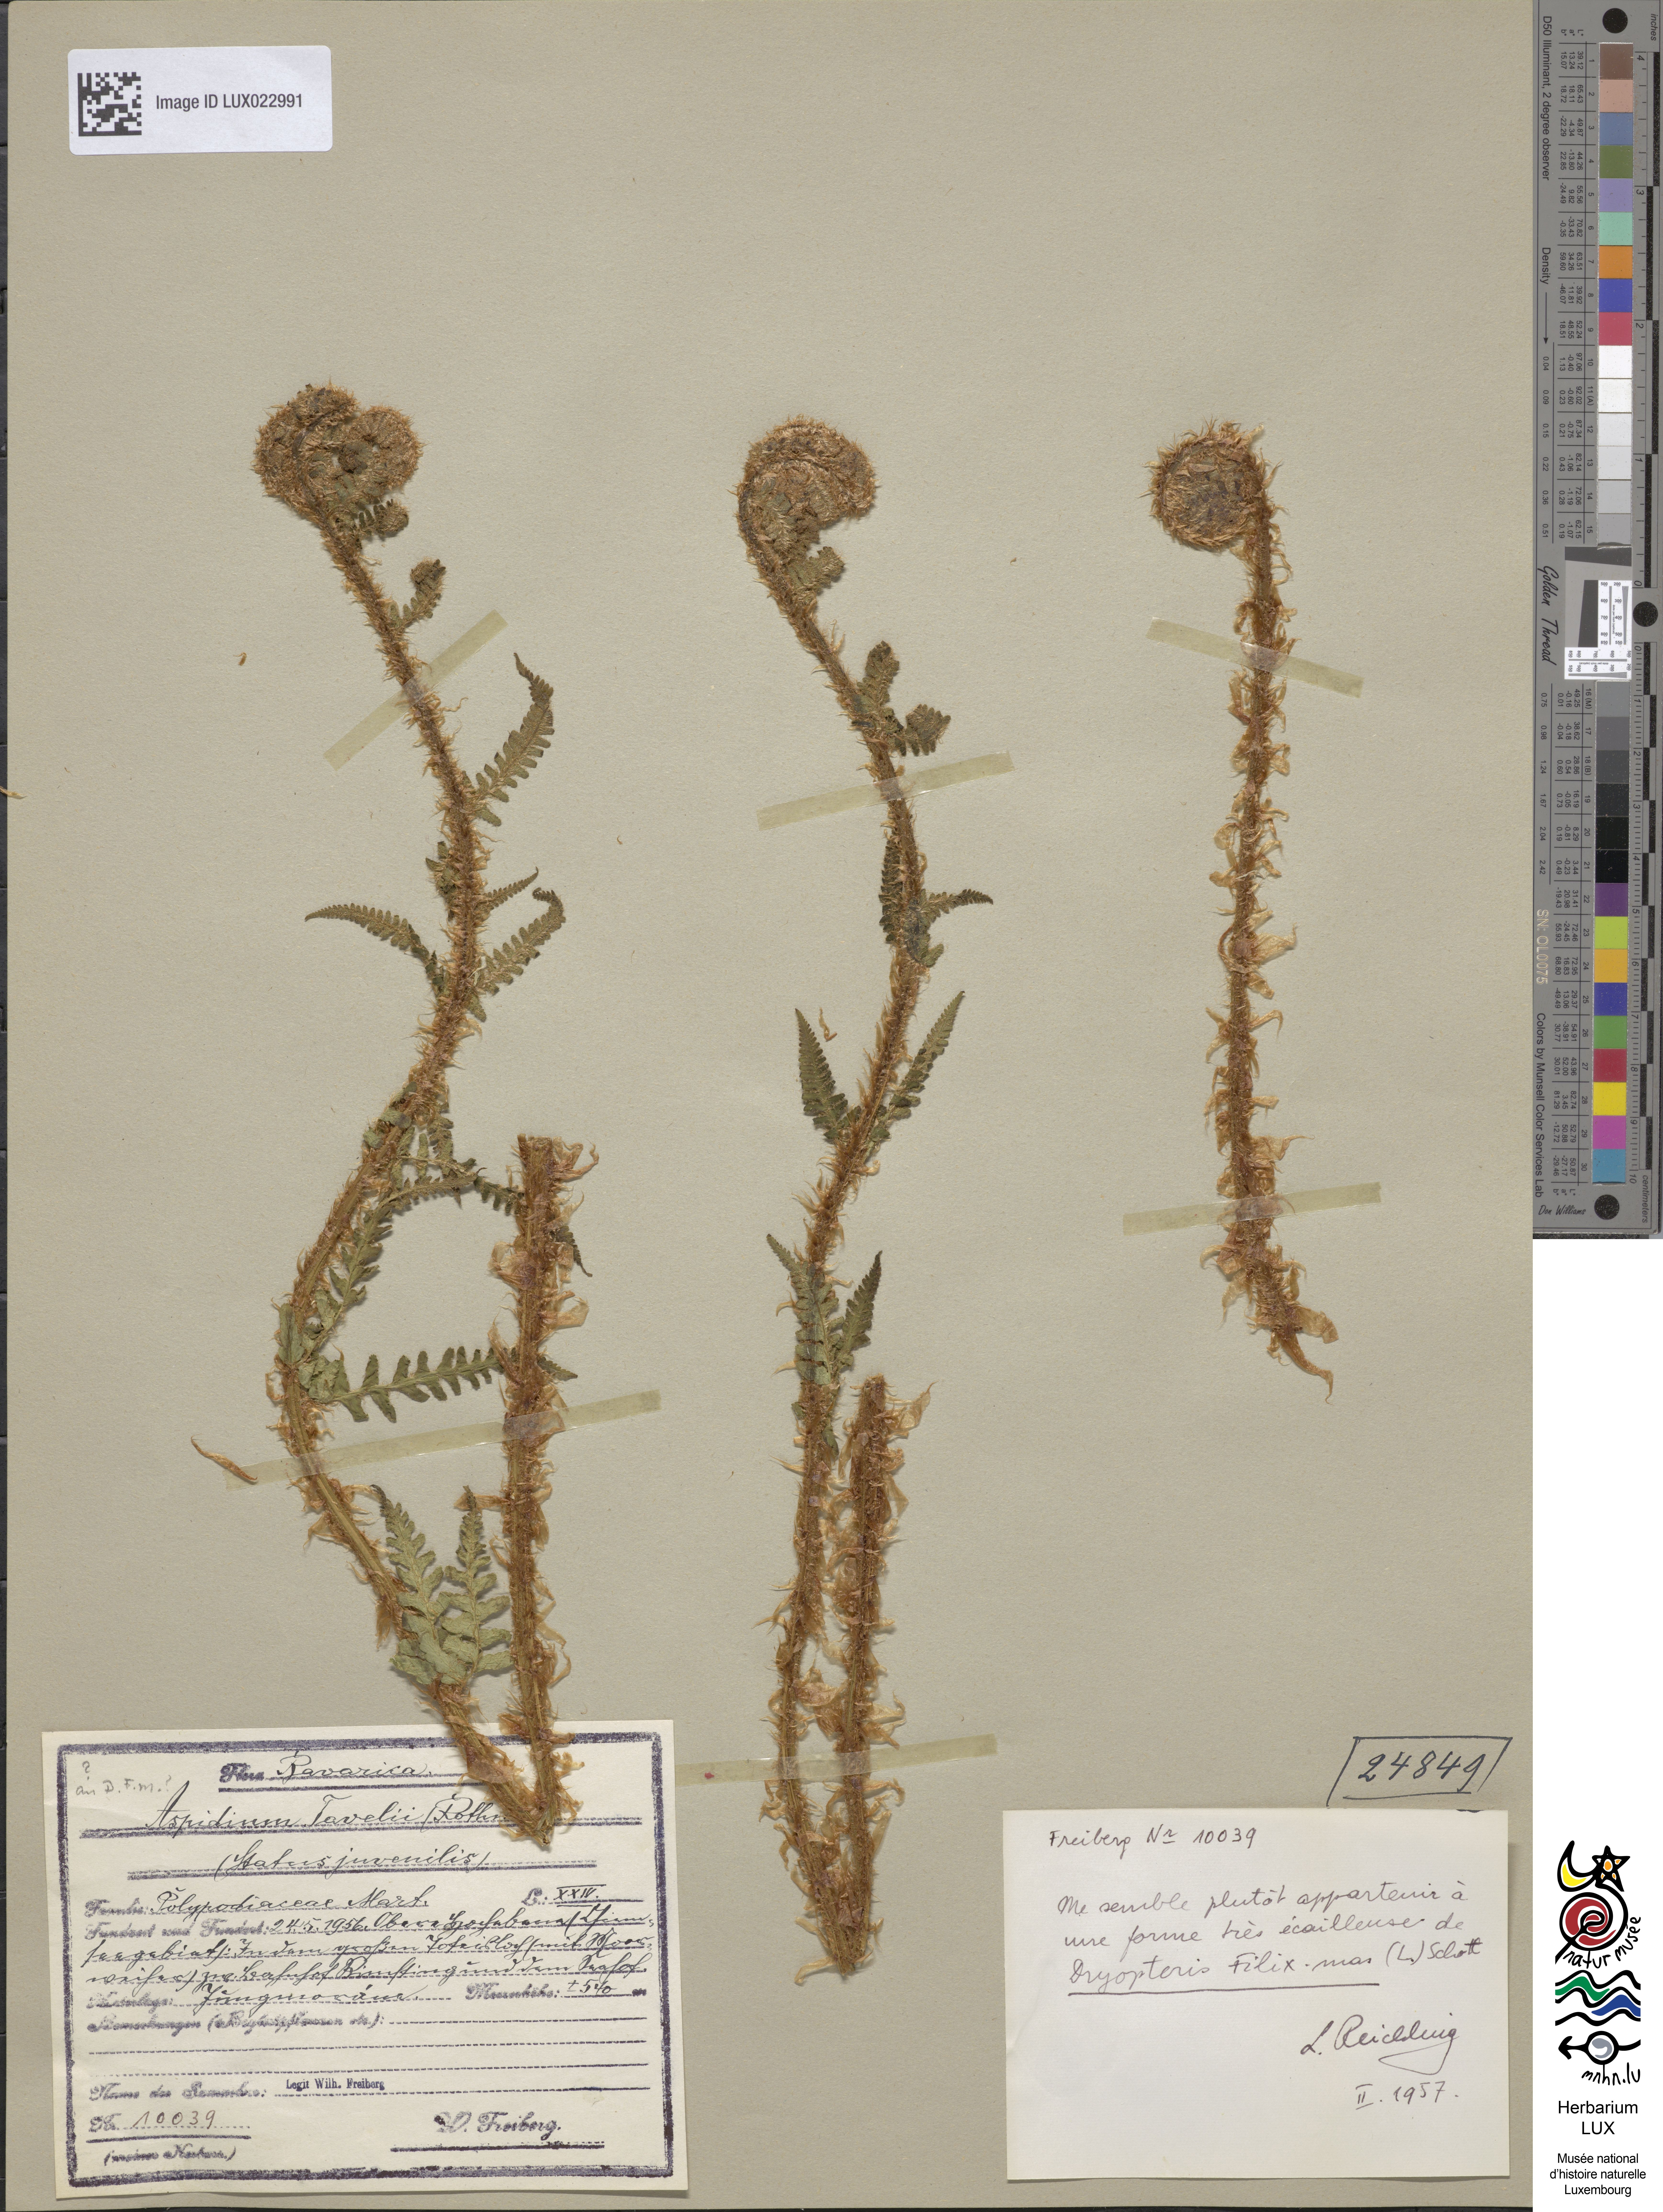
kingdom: Plantae
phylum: Tracheophyta
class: Polypodiopsida
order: Polypodiales
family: Dryopteridaceae
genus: Dryopteris
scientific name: Dryopteris filix-mas
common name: Male fern
